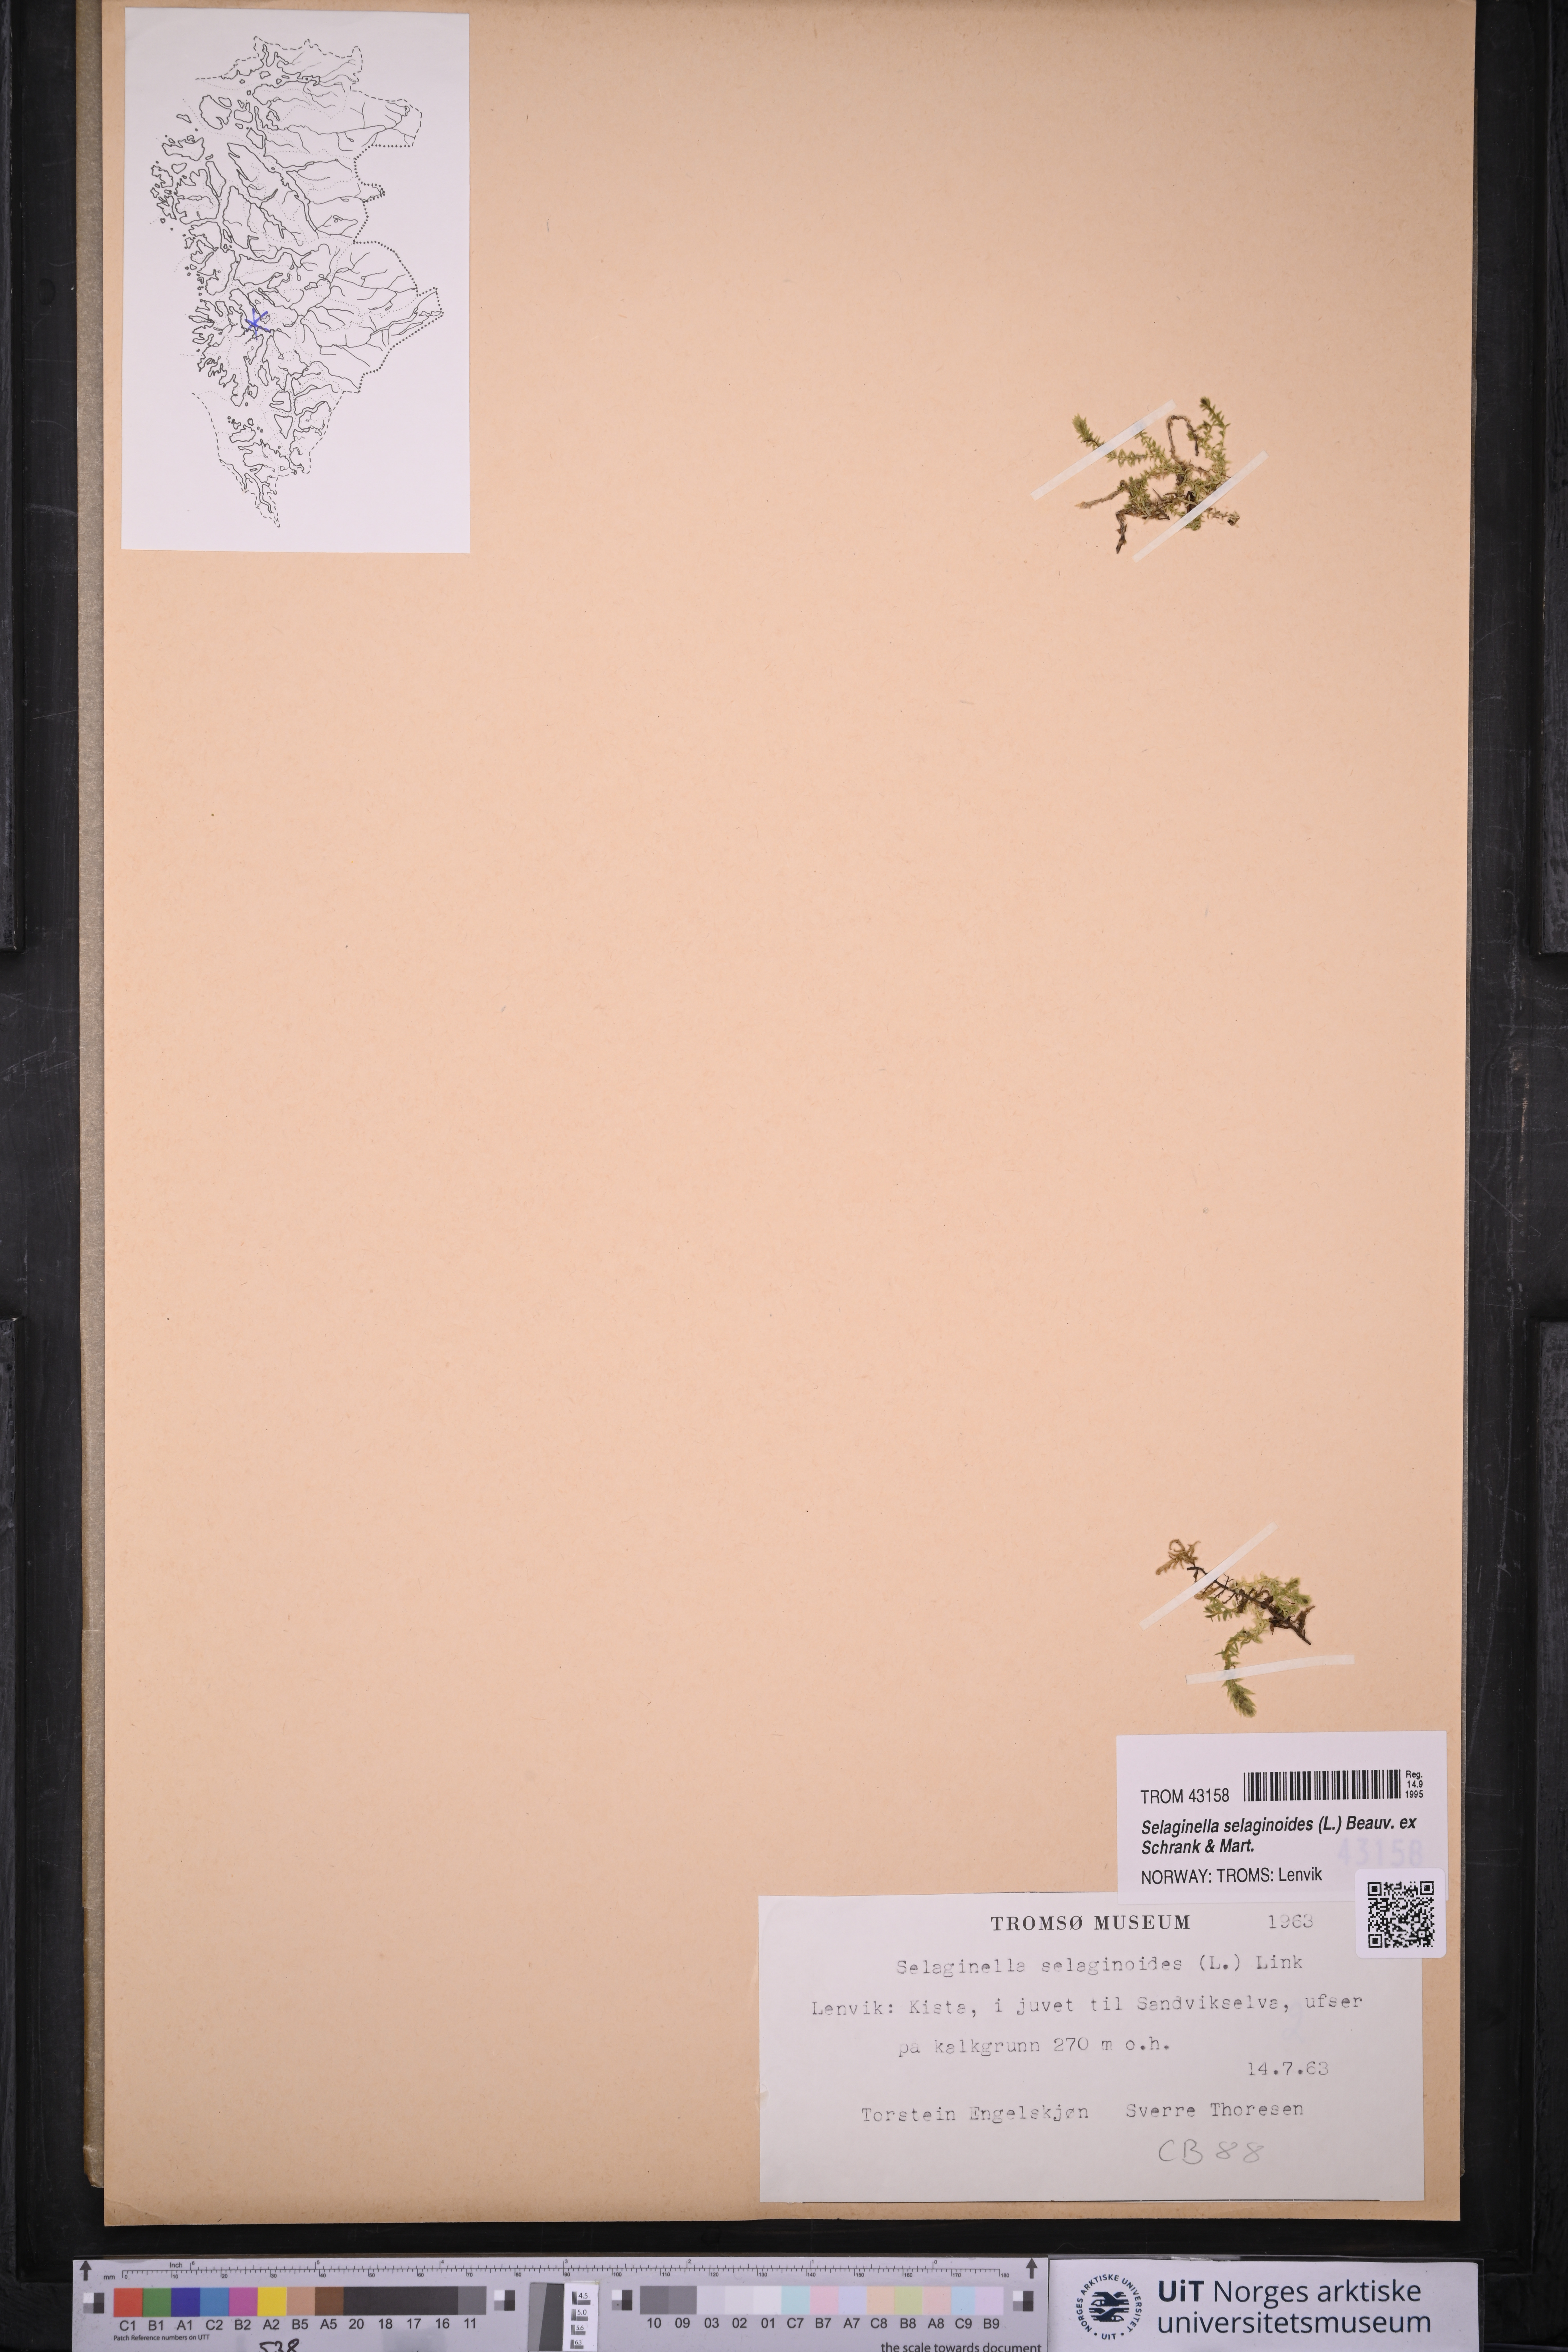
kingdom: Plantae
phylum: Tracheophyta
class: Lycopodiopsida
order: Selaginellales
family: Selaginellaceae
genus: Selaginella
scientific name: Selaginella selaginoides
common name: Prickly mountain-moss
